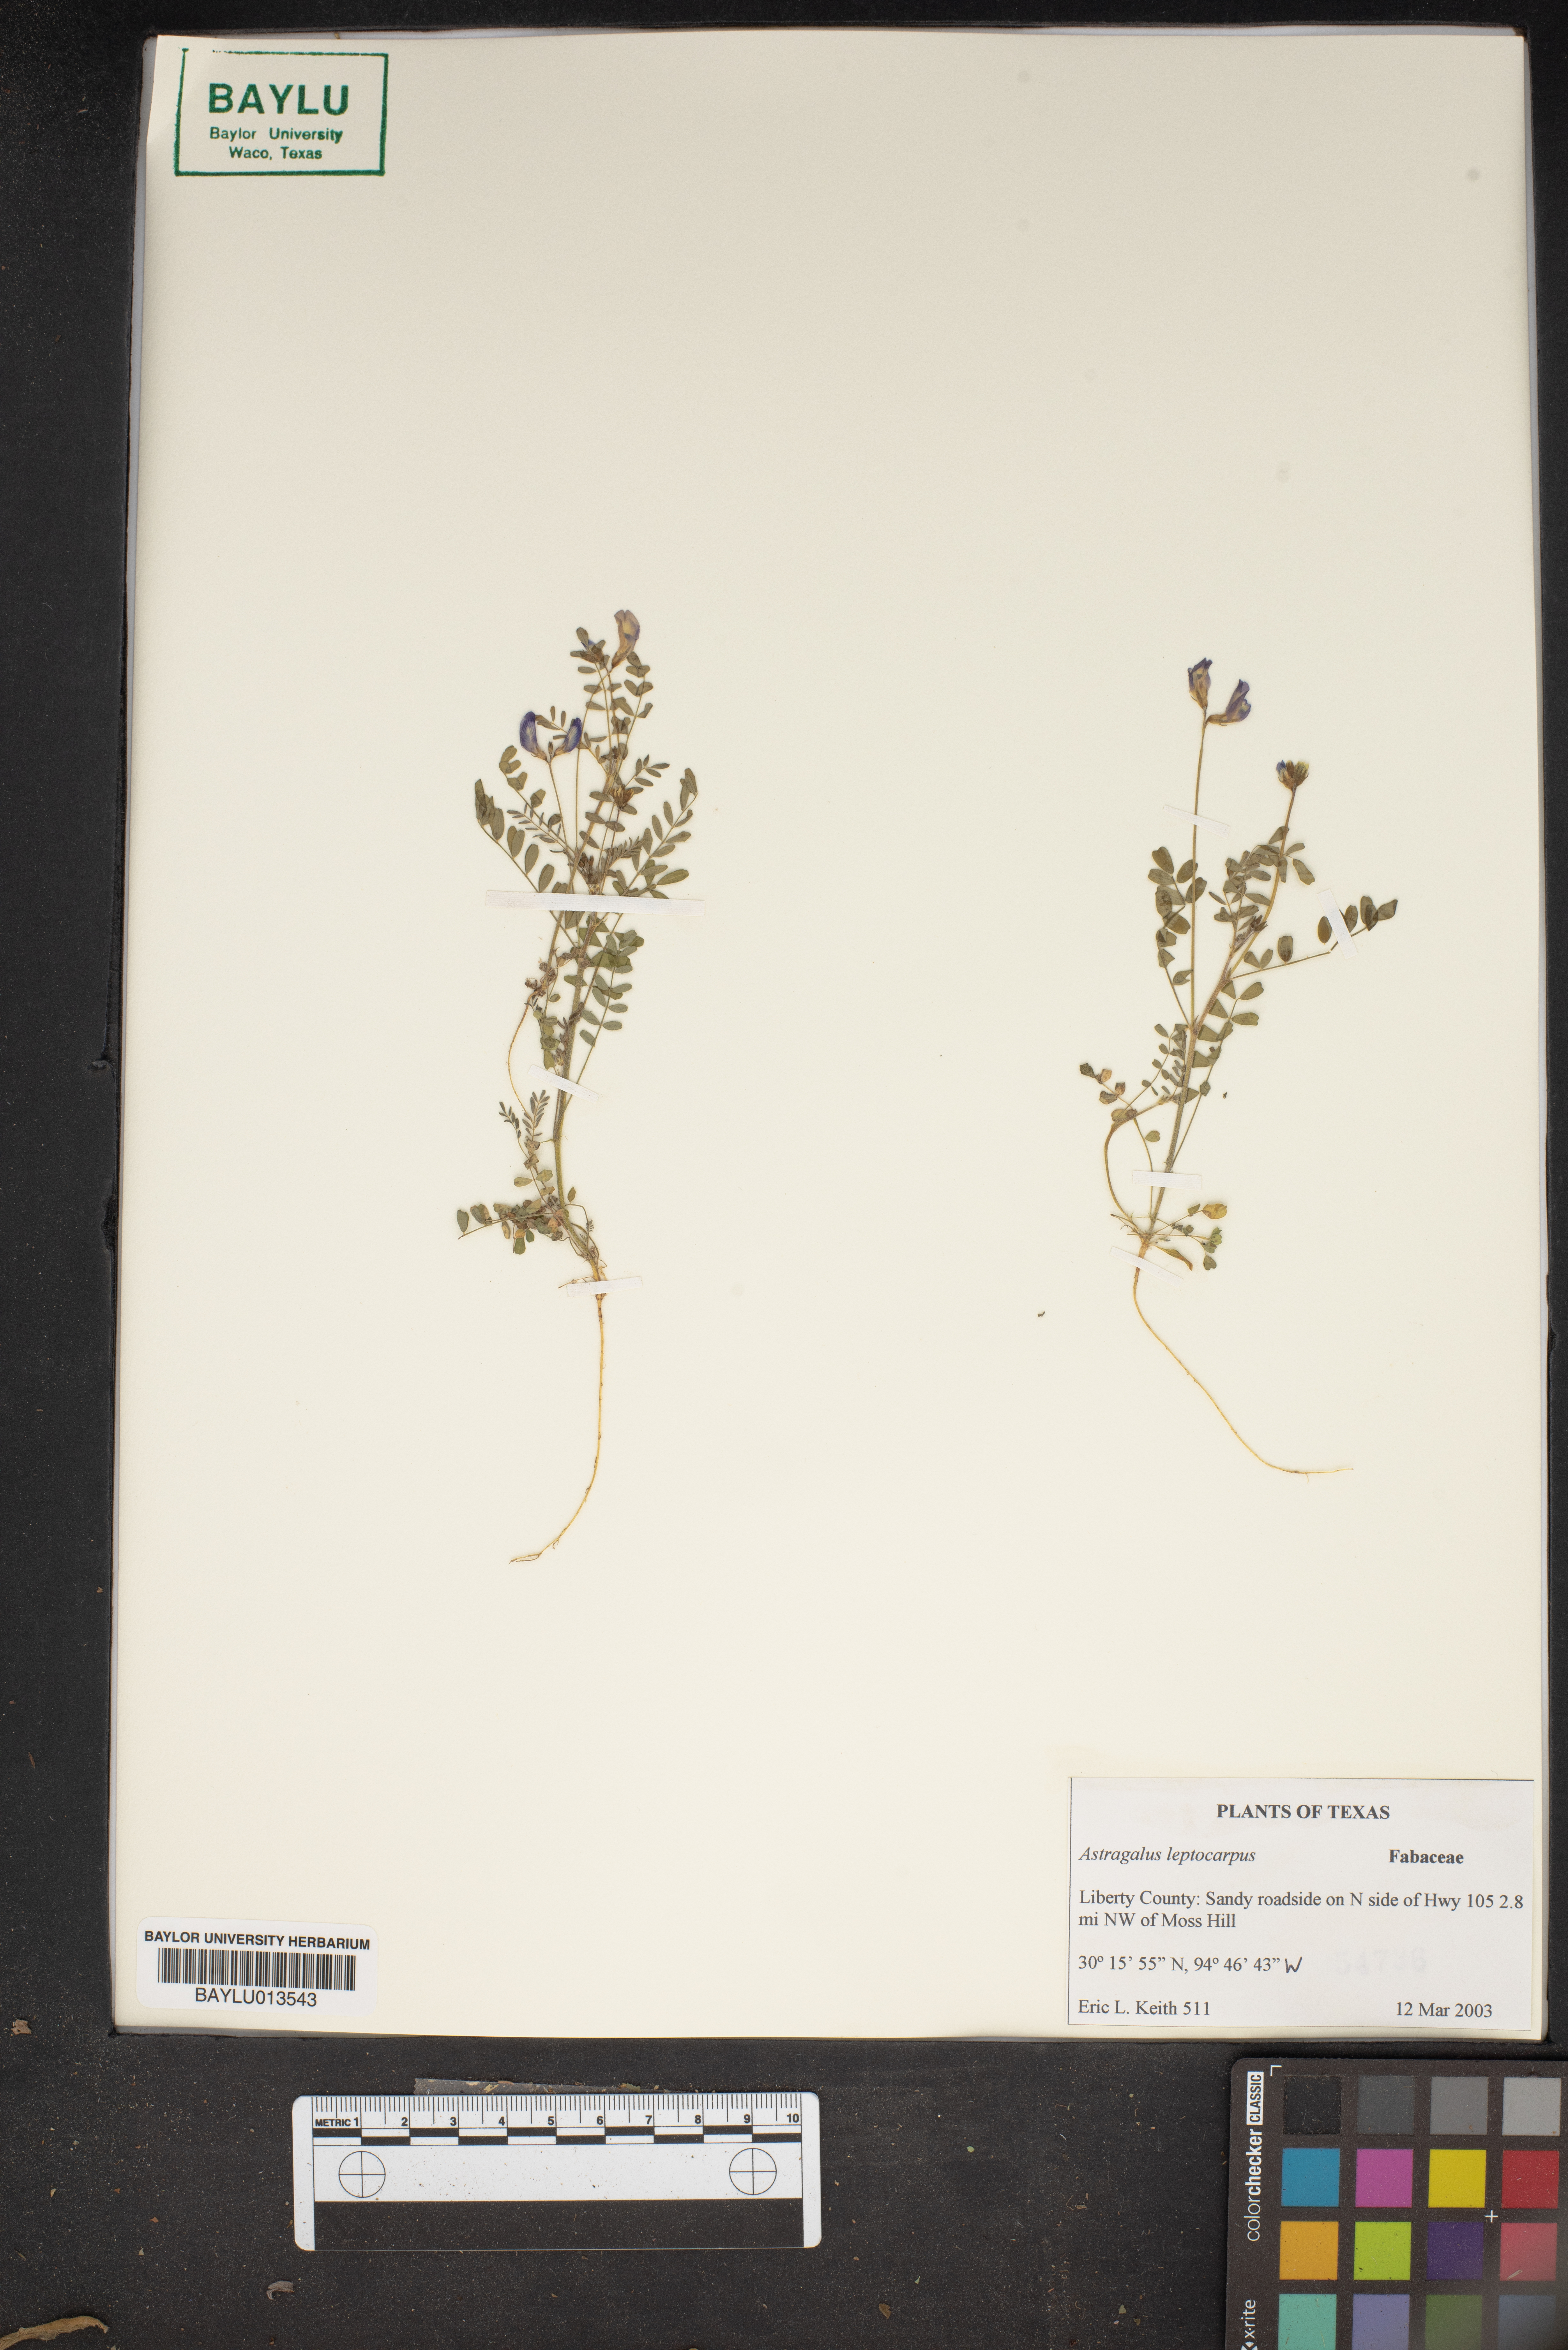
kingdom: Plantae
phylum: Tracheophyta
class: Magnoliopsida
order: Fabales
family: Fabaceae
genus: Astragalus
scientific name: Astragalus leptocarpus
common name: Bodkin milk-vetch
